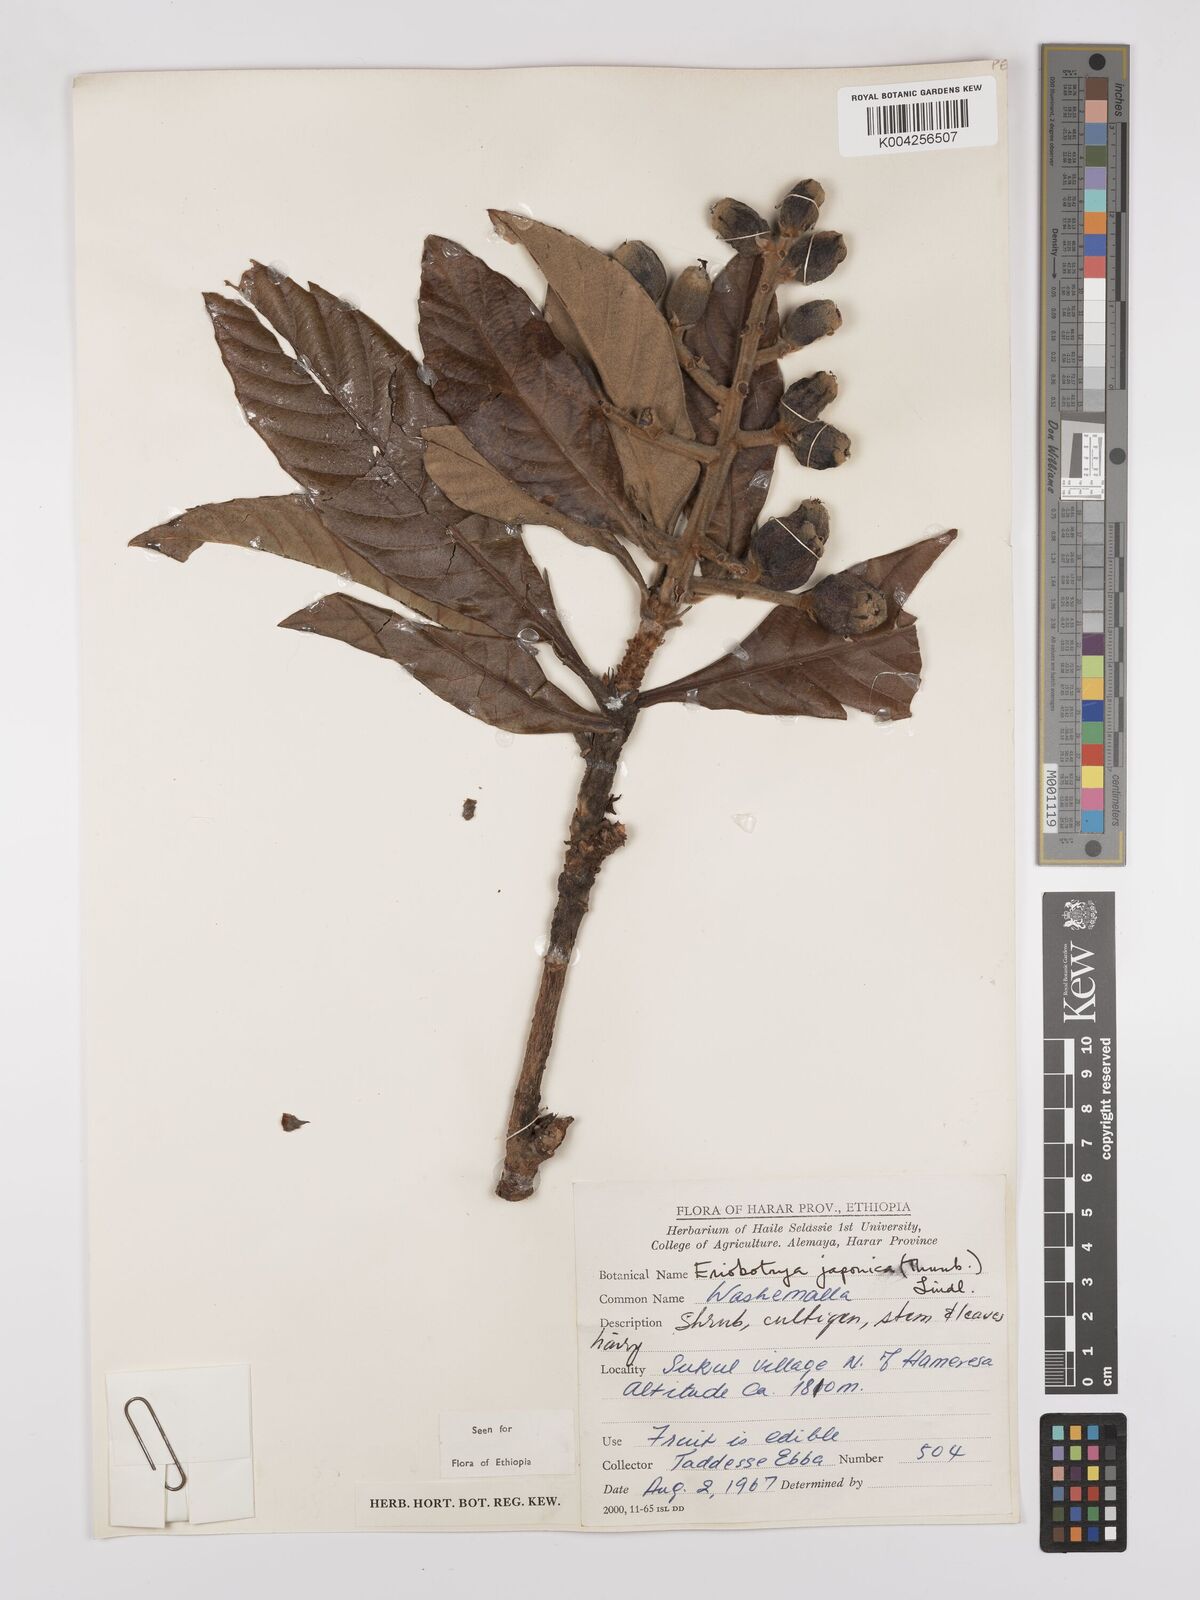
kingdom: Plantae
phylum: Tracheophyta
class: Magnoliopsida
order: Rosales
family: Rosaceae
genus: Rhaphiolepis
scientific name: Rhaphiolepis bibas
